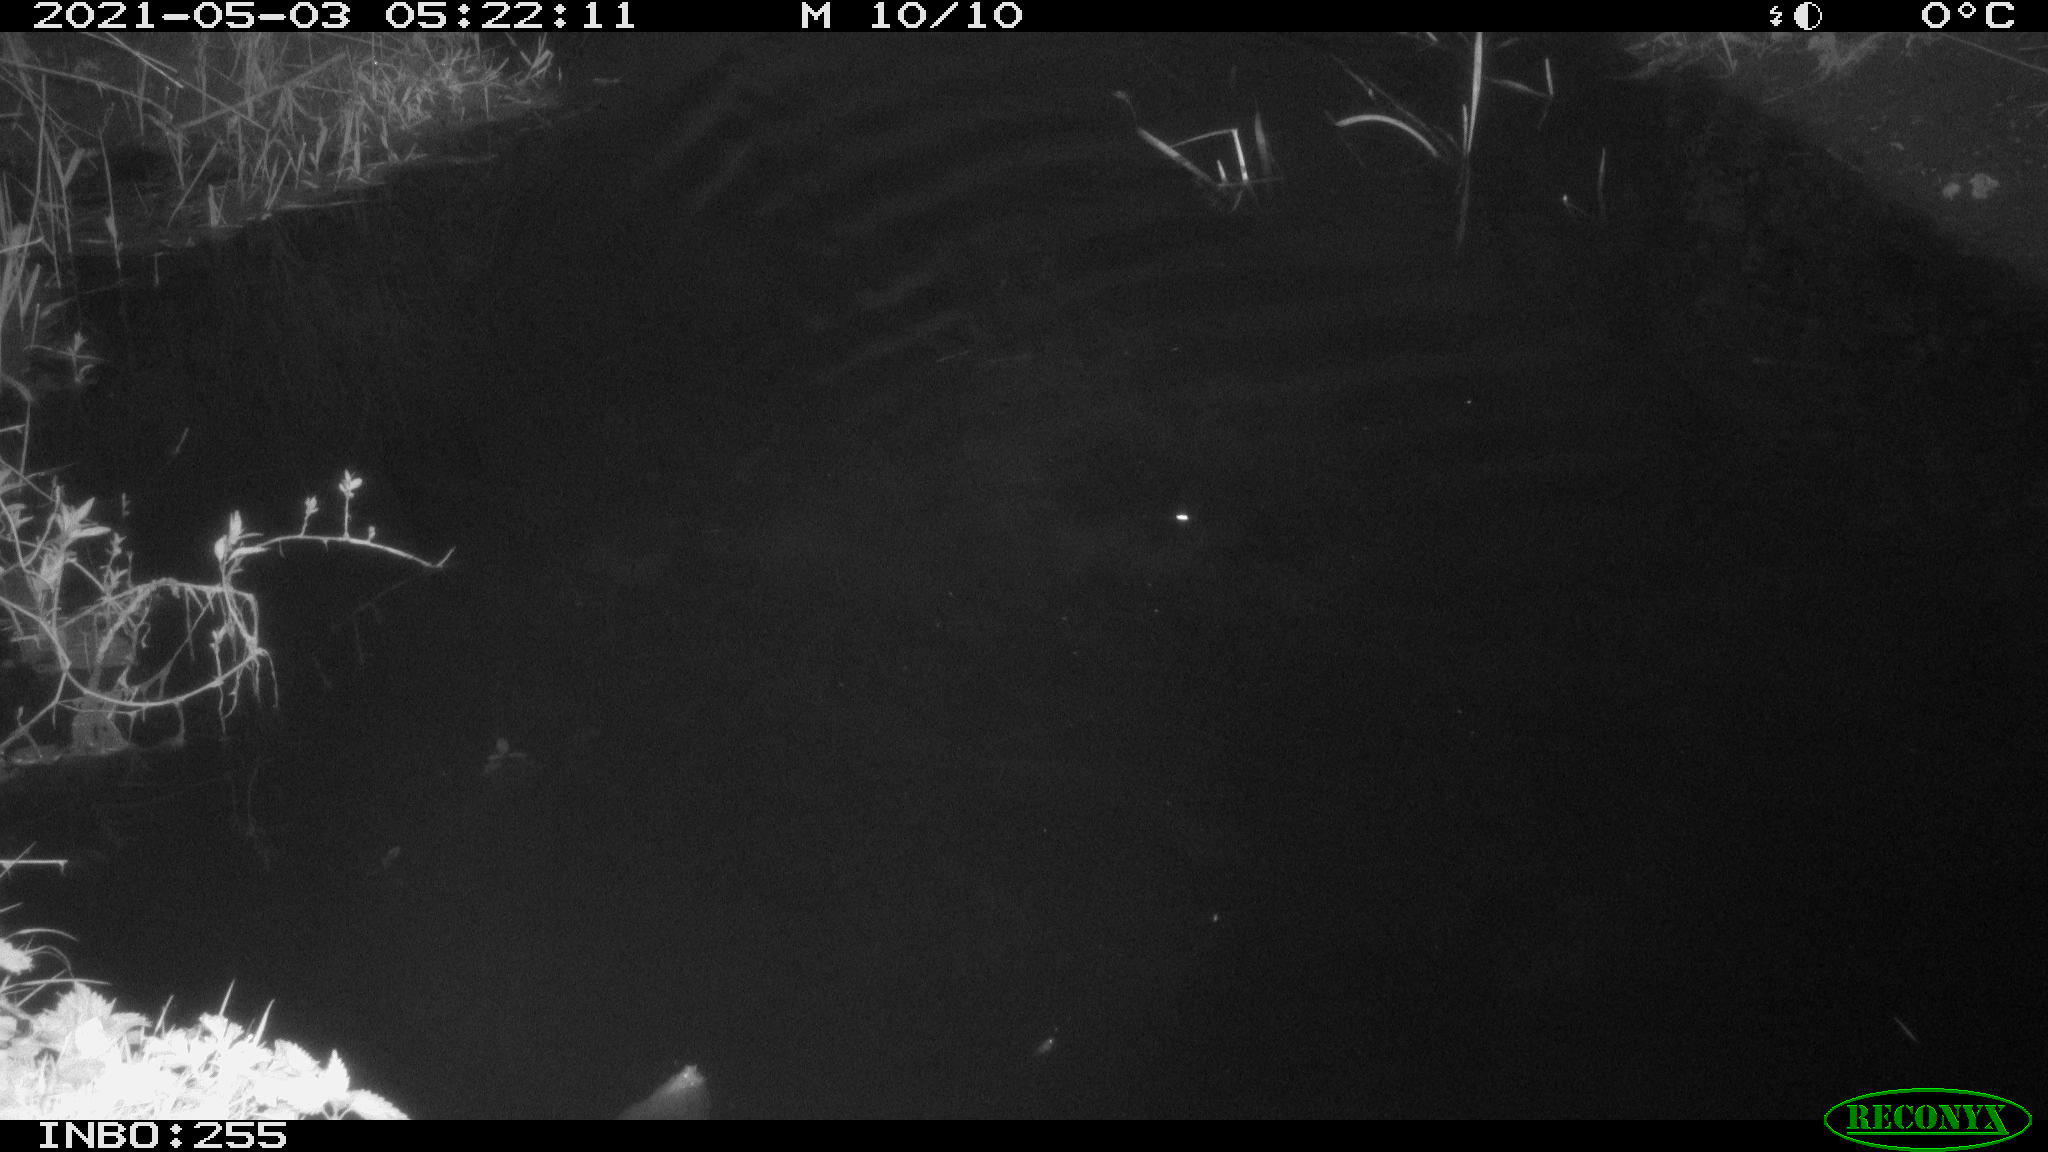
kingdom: Animalia
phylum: Chordata
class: Aves
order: Anseriformes
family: Anatidae
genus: Anas
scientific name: Anas platyrhynchos
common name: Mallard
